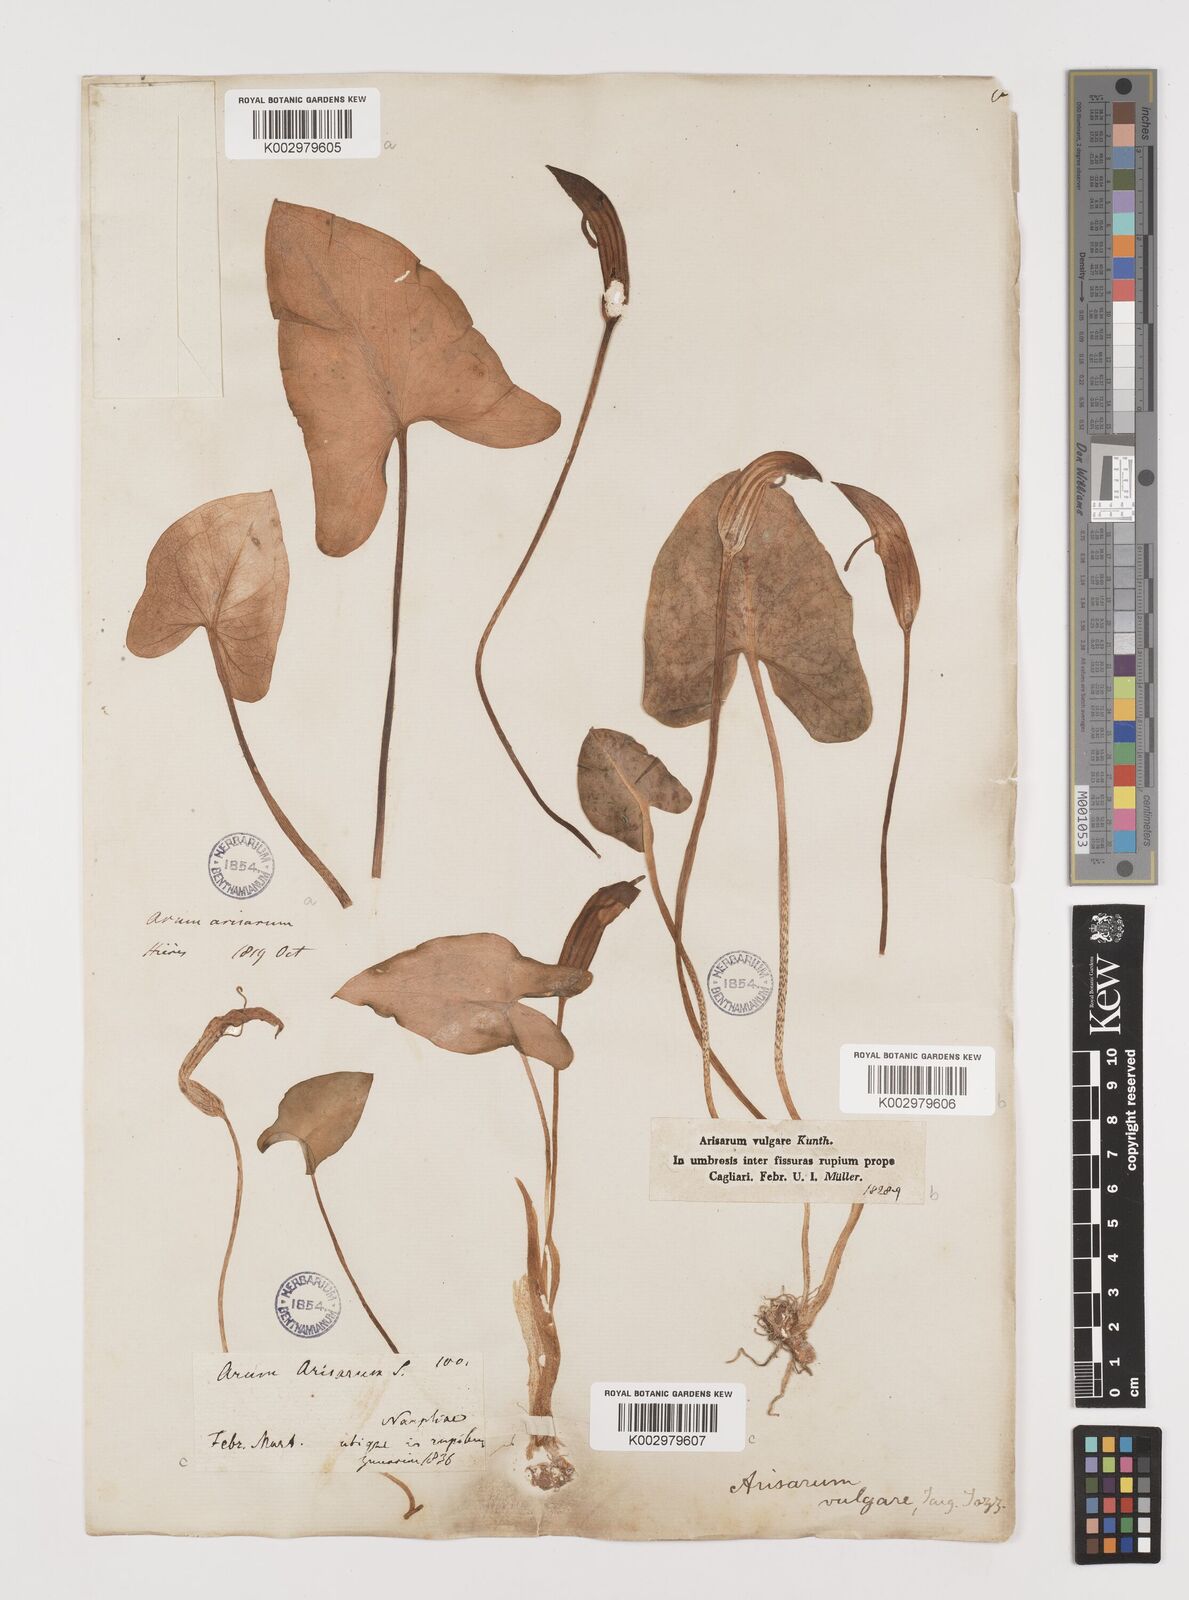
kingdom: Plantae
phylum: Tracheophyta
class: Liliopsida
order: Alismatales
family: Araceae
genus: Arisarum
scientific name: Arisarum vulgare
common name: Common arisarum
